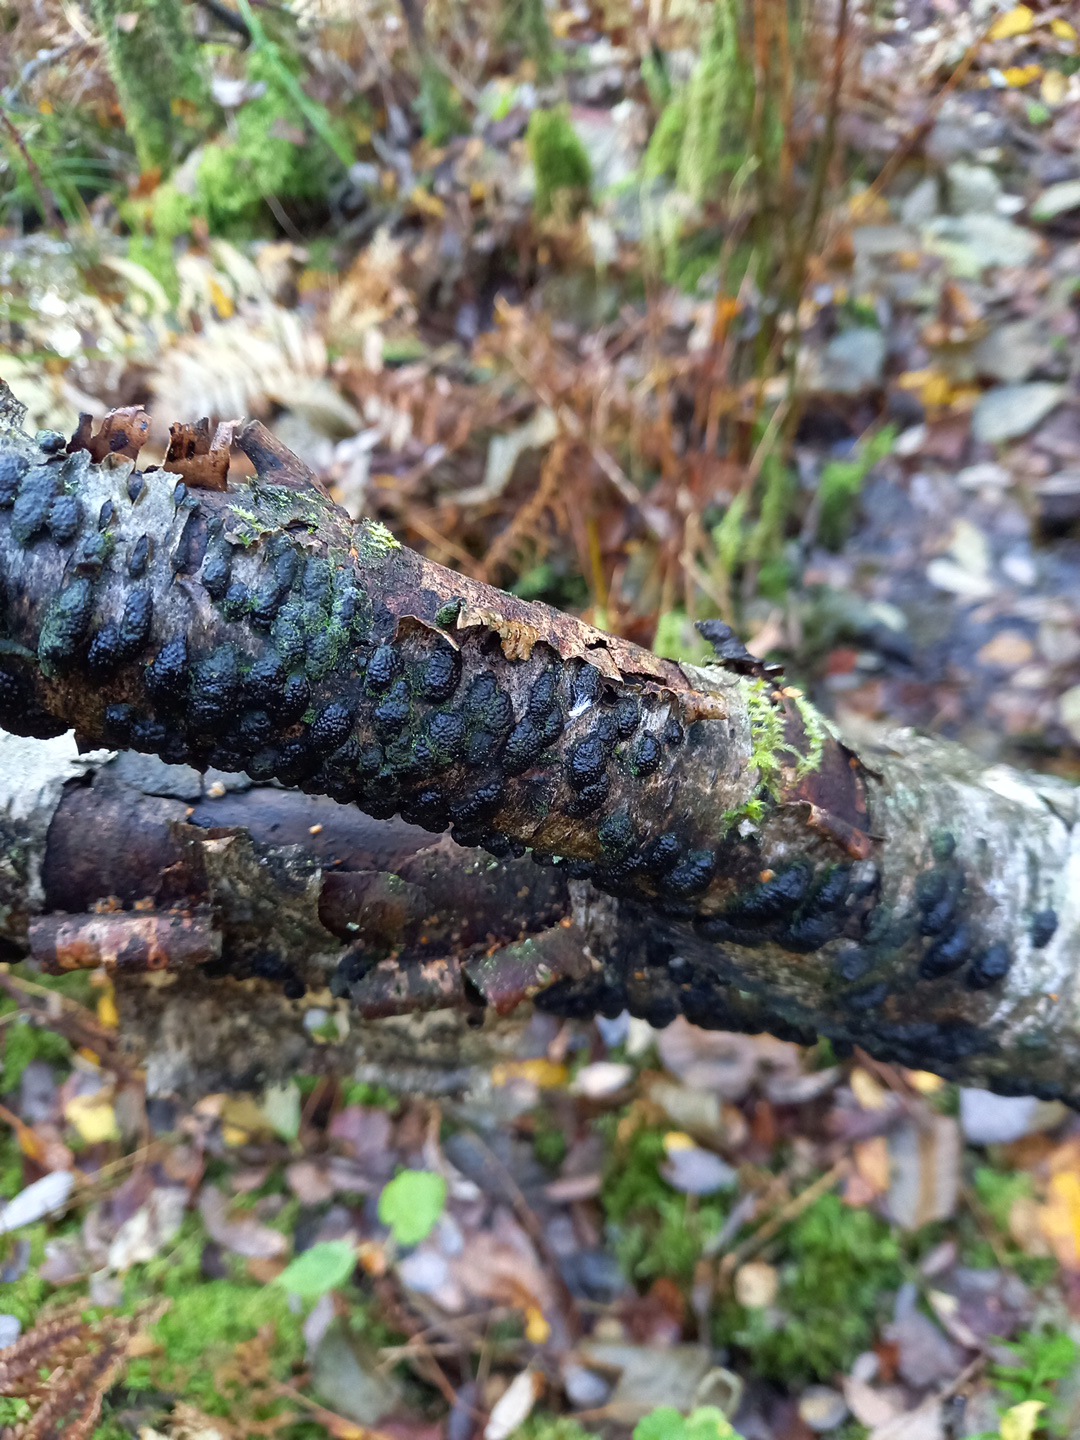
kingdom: Fungi
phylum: Ascomycota
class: Sordariomycetes
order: Xylariales
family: Hypoxylaceae
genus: Jackrogersella
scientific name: Jackrogersella multiformis
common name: foranderlig kulbær
